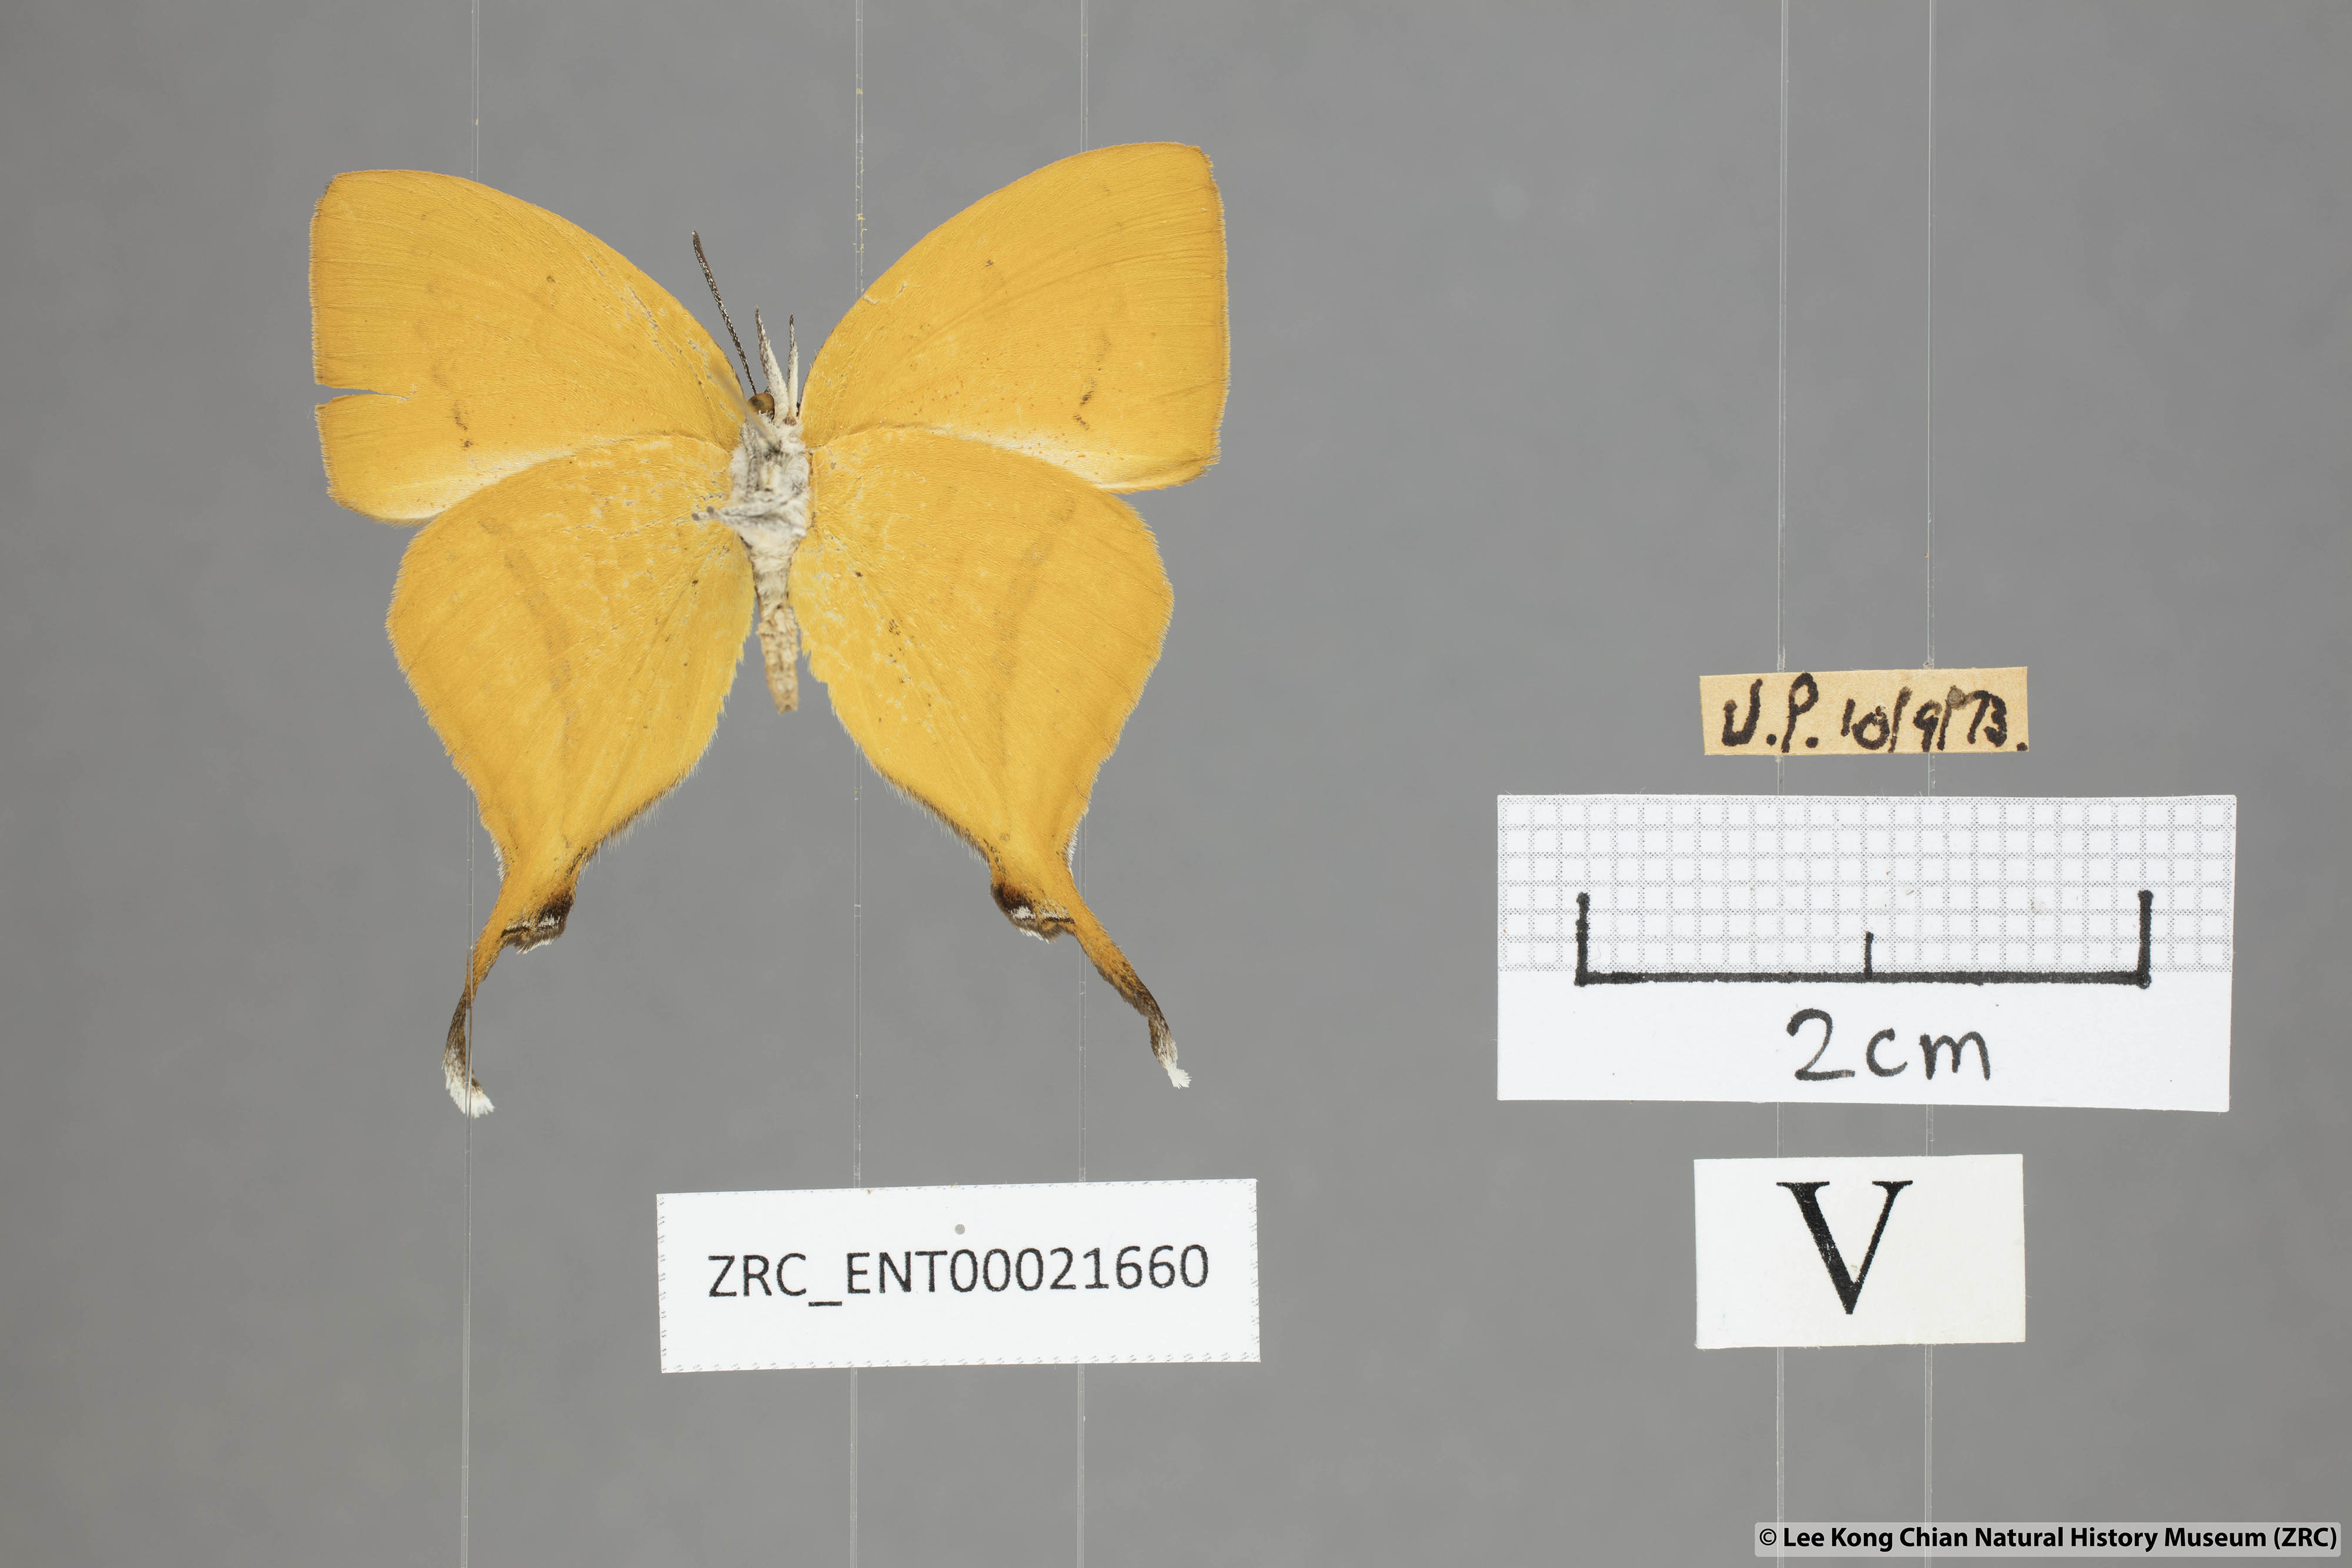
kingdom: Animalia
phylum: Arthropoda
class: Insecta
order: Lepidoptera
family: Lycaenidae
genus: Loxura
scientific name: Loxura atymnus
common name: Common yamfly
